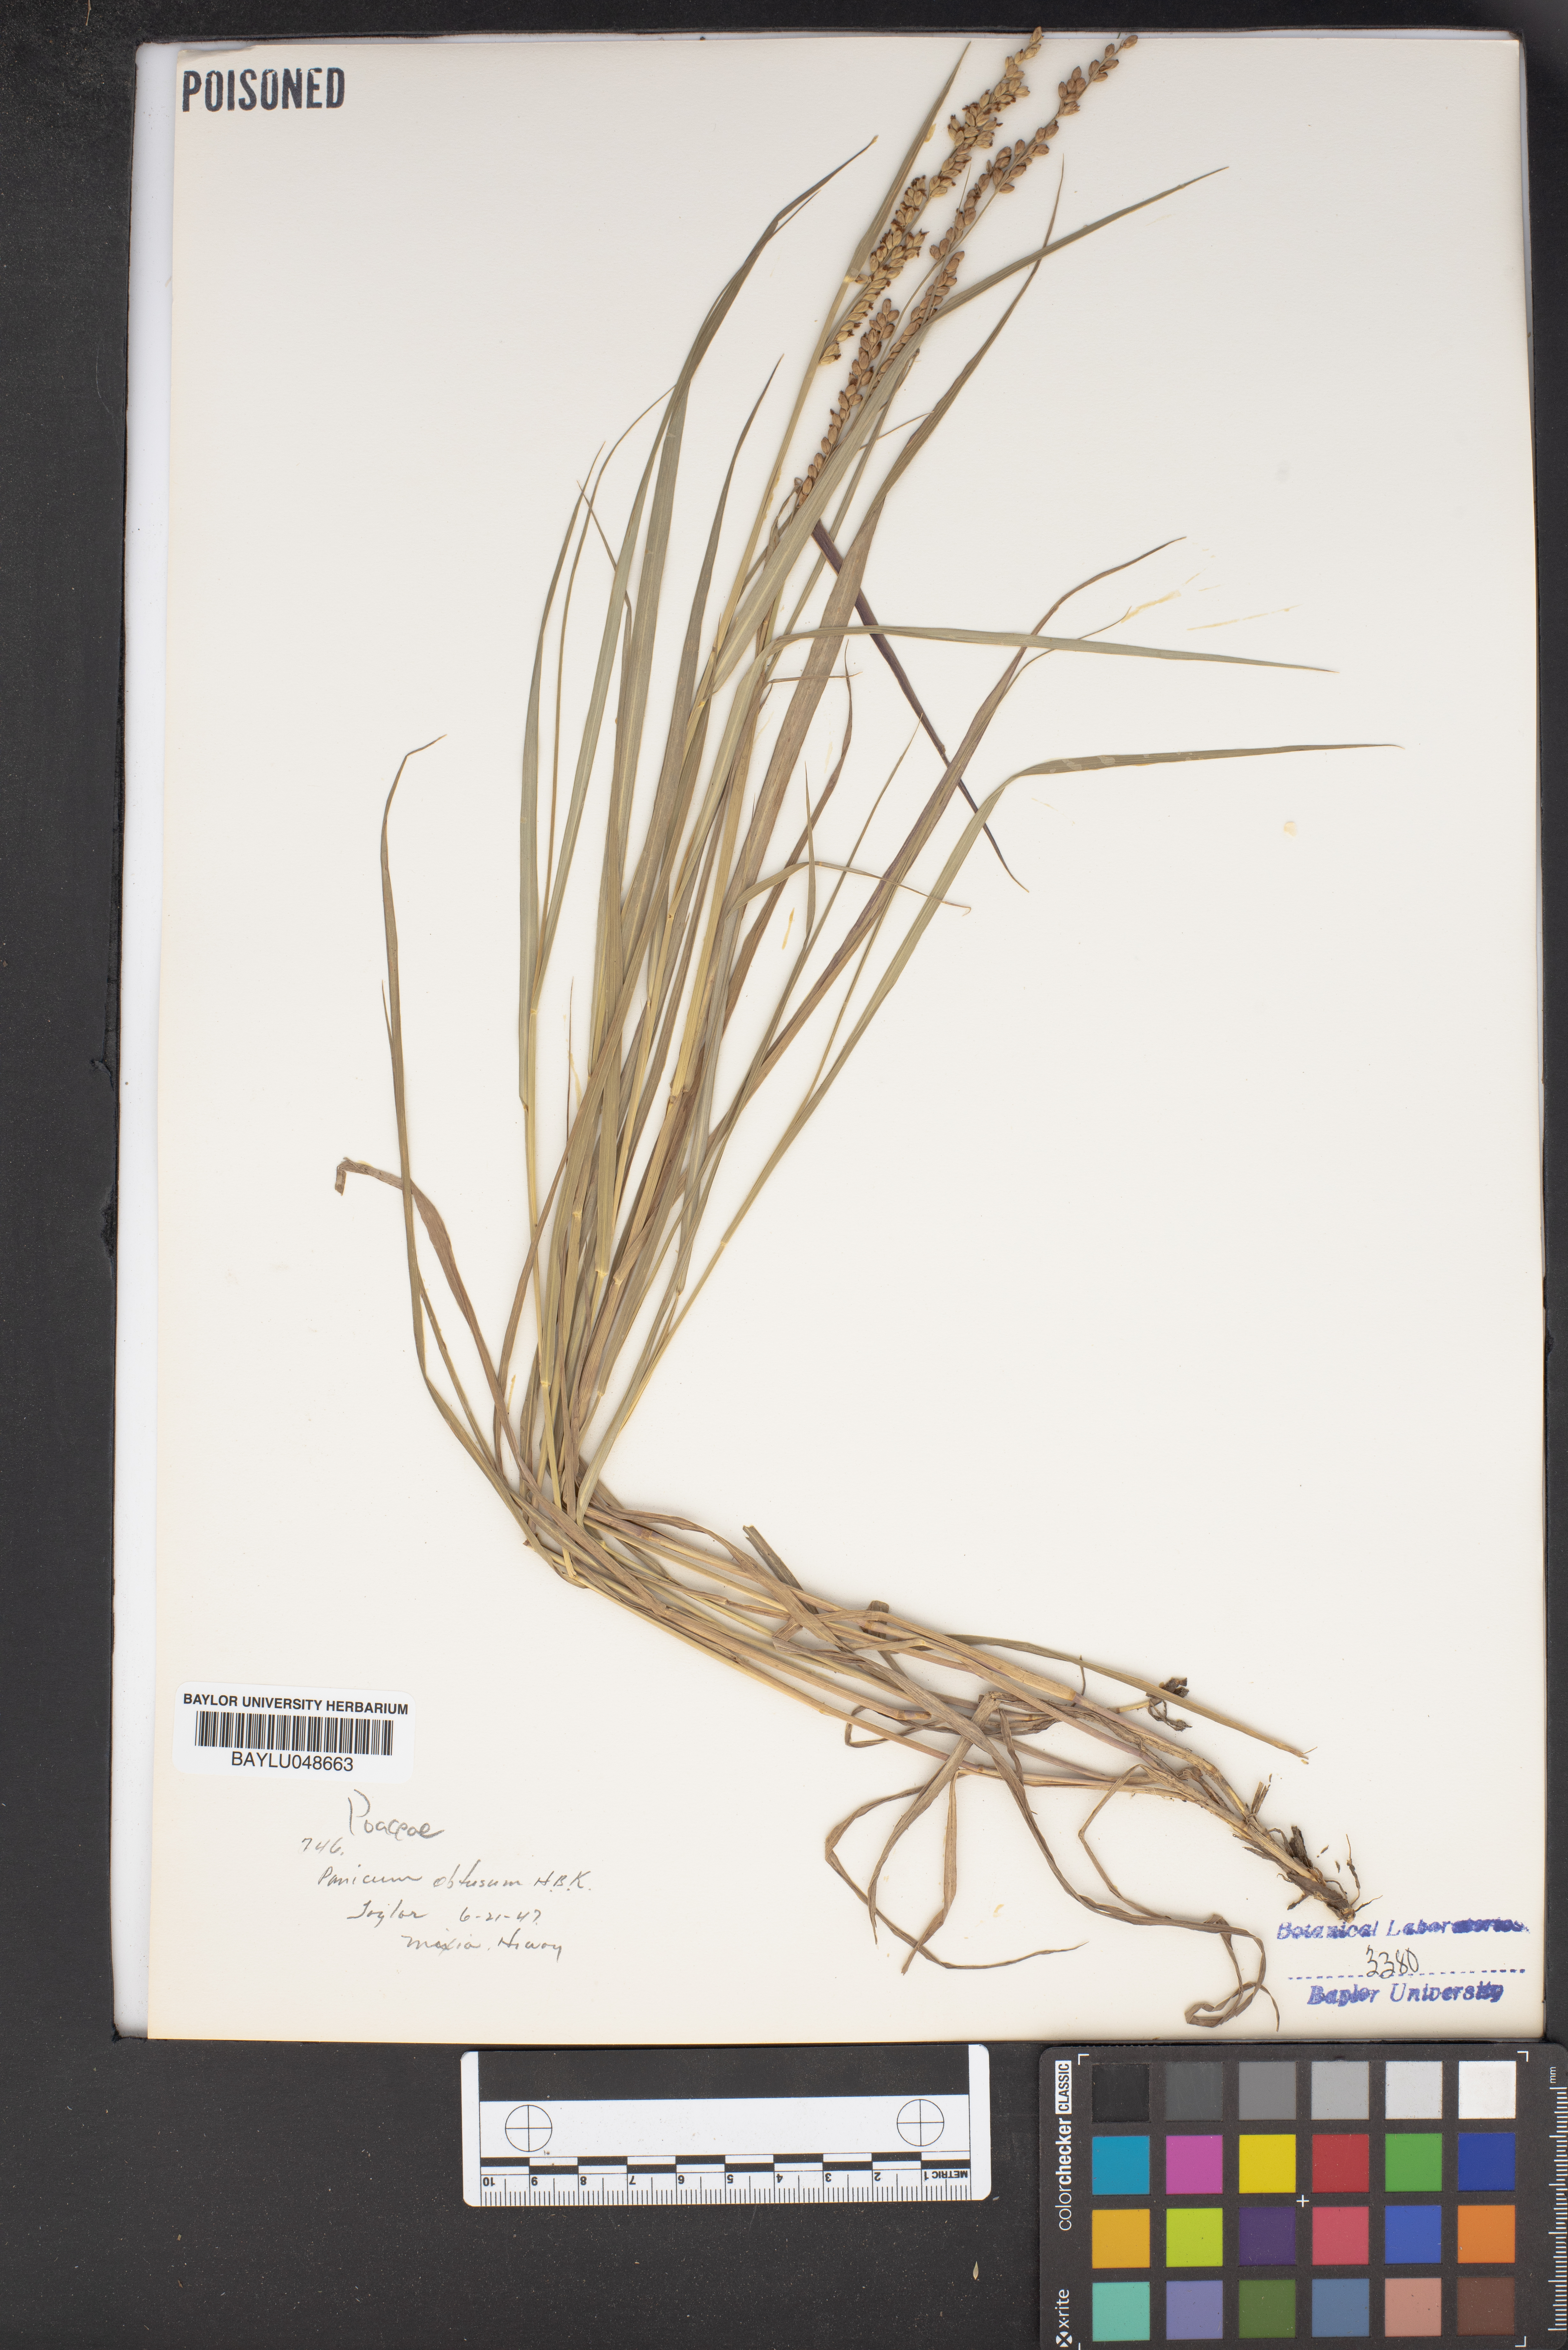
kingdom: Plantae
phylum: Tracheophyta
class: Liliopsida
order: Poales
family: Poaceae
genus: Hopia
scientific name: Hopia obtusa
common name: Vine-mesquite
